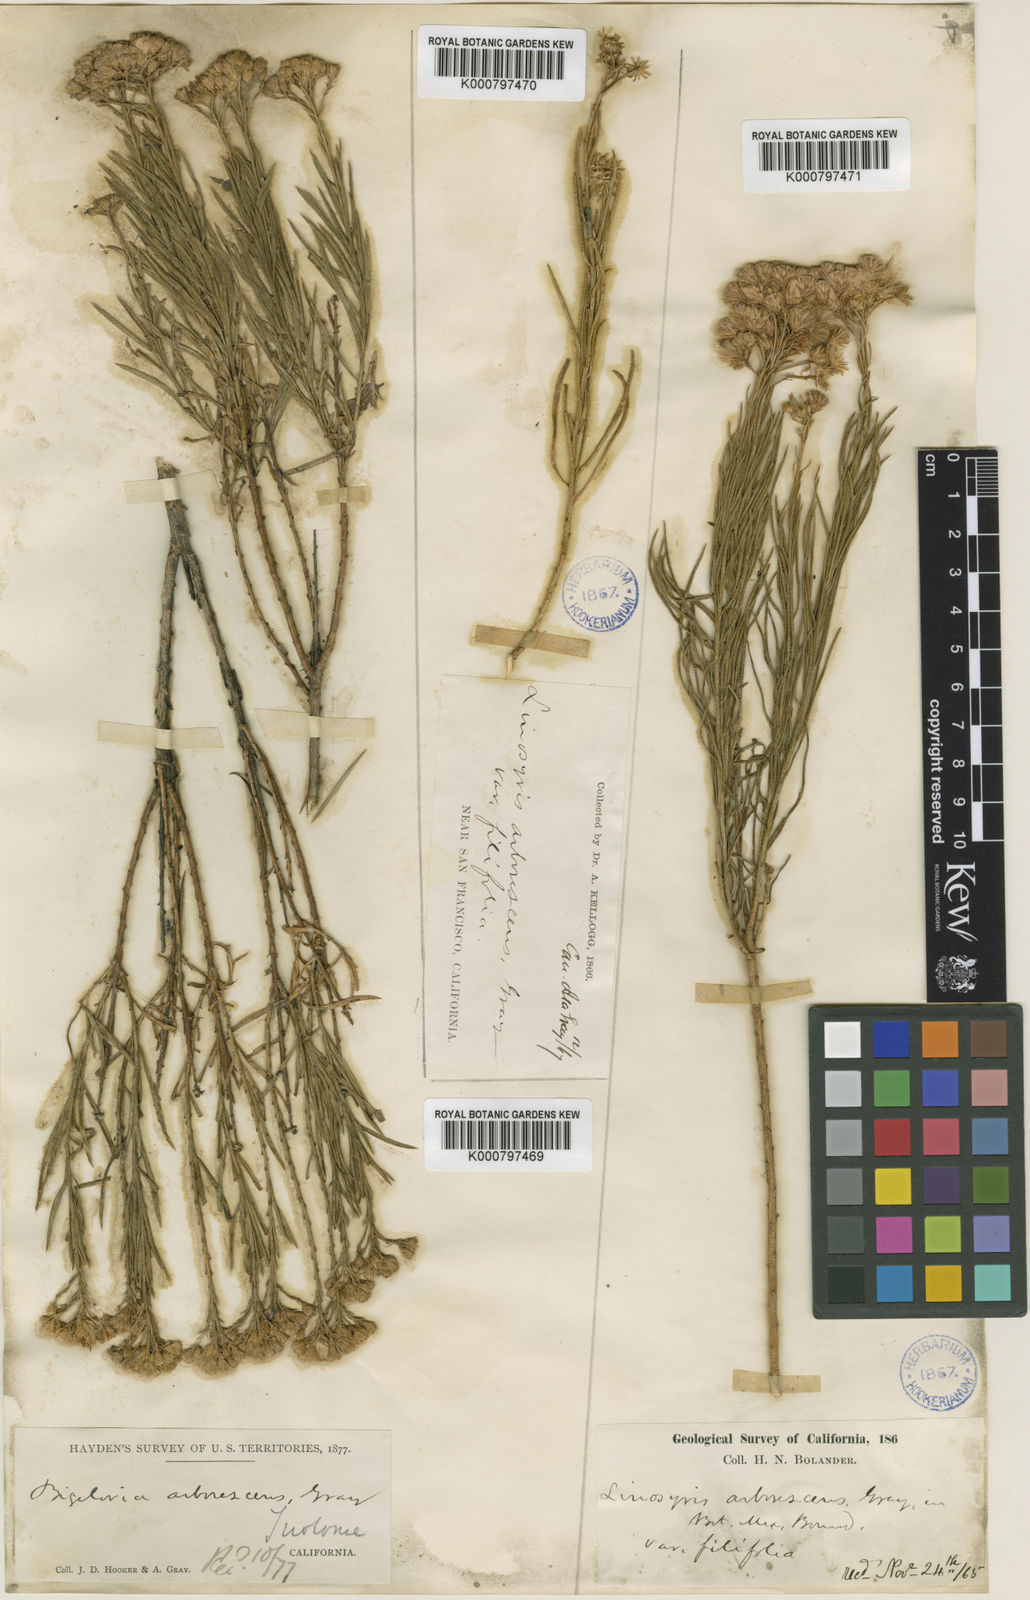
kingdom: Plantae
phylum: Tracheophyta
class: Magnoliopsida
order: Asterales
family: Asteraceae
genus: Ericameria
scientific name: Ericameria arborescens
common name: Goldenfleece
